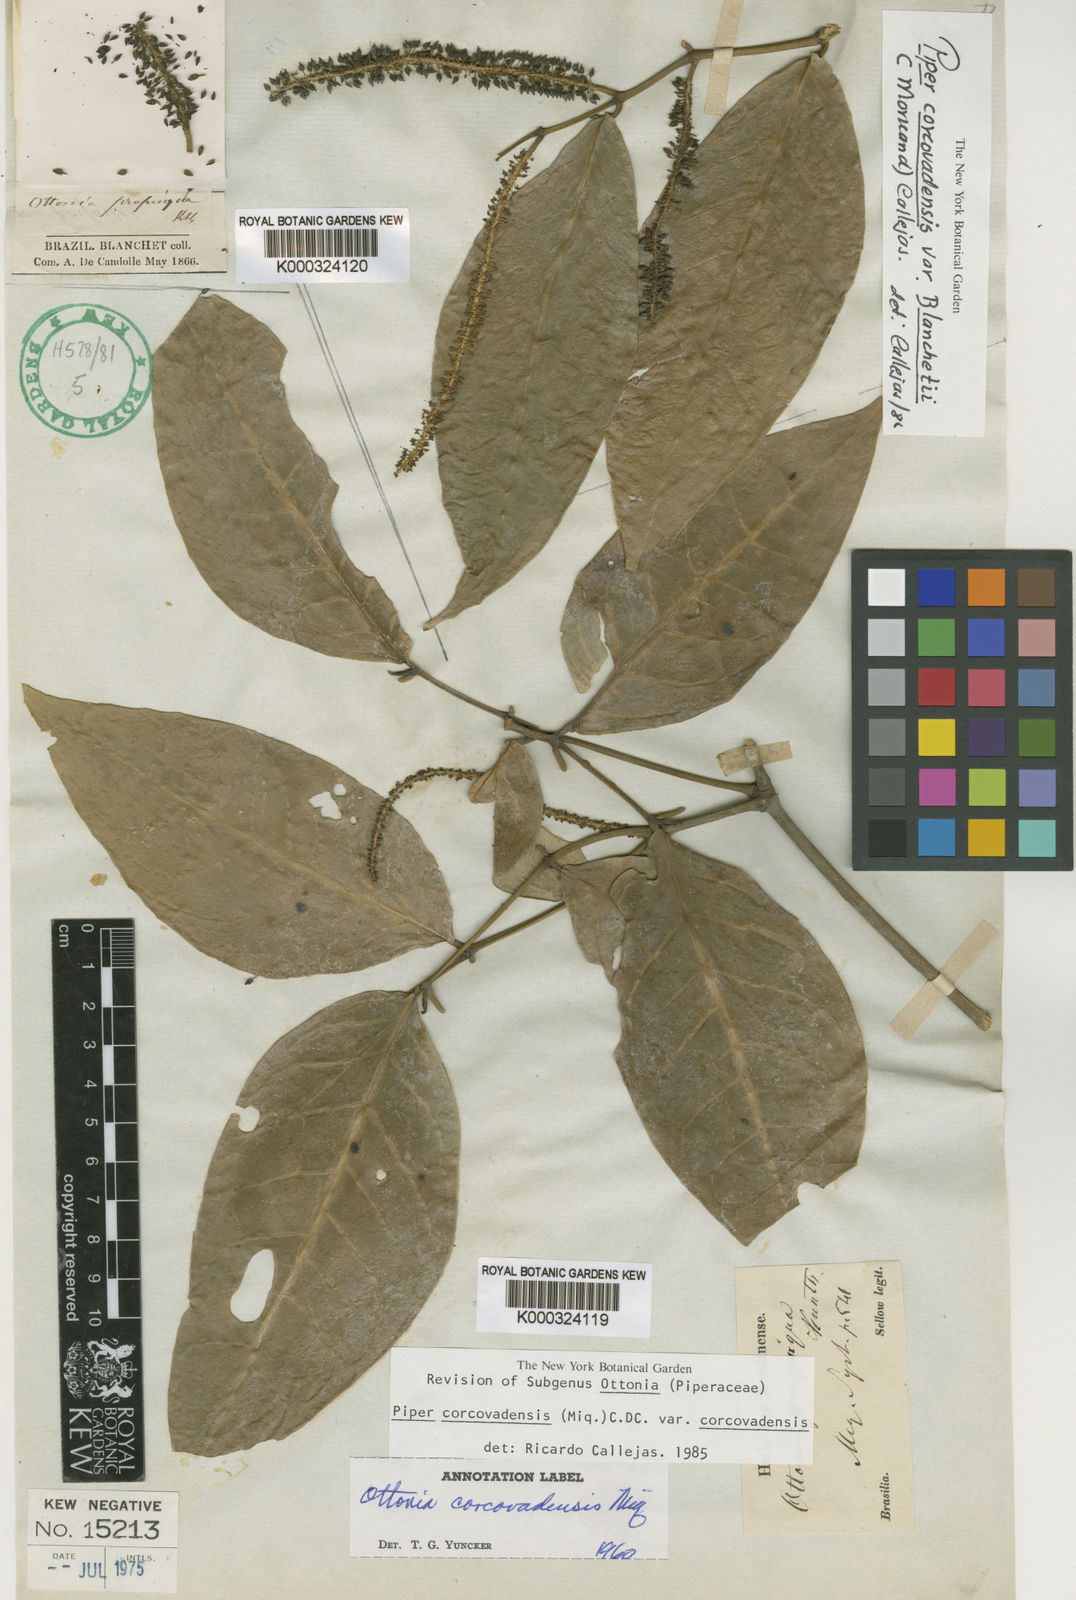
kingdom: Plantae
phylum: Tracheophyta
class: Magnoliopsida
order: Piperales
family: Piperaceae
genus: Piper
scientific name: Piper corcovadense
